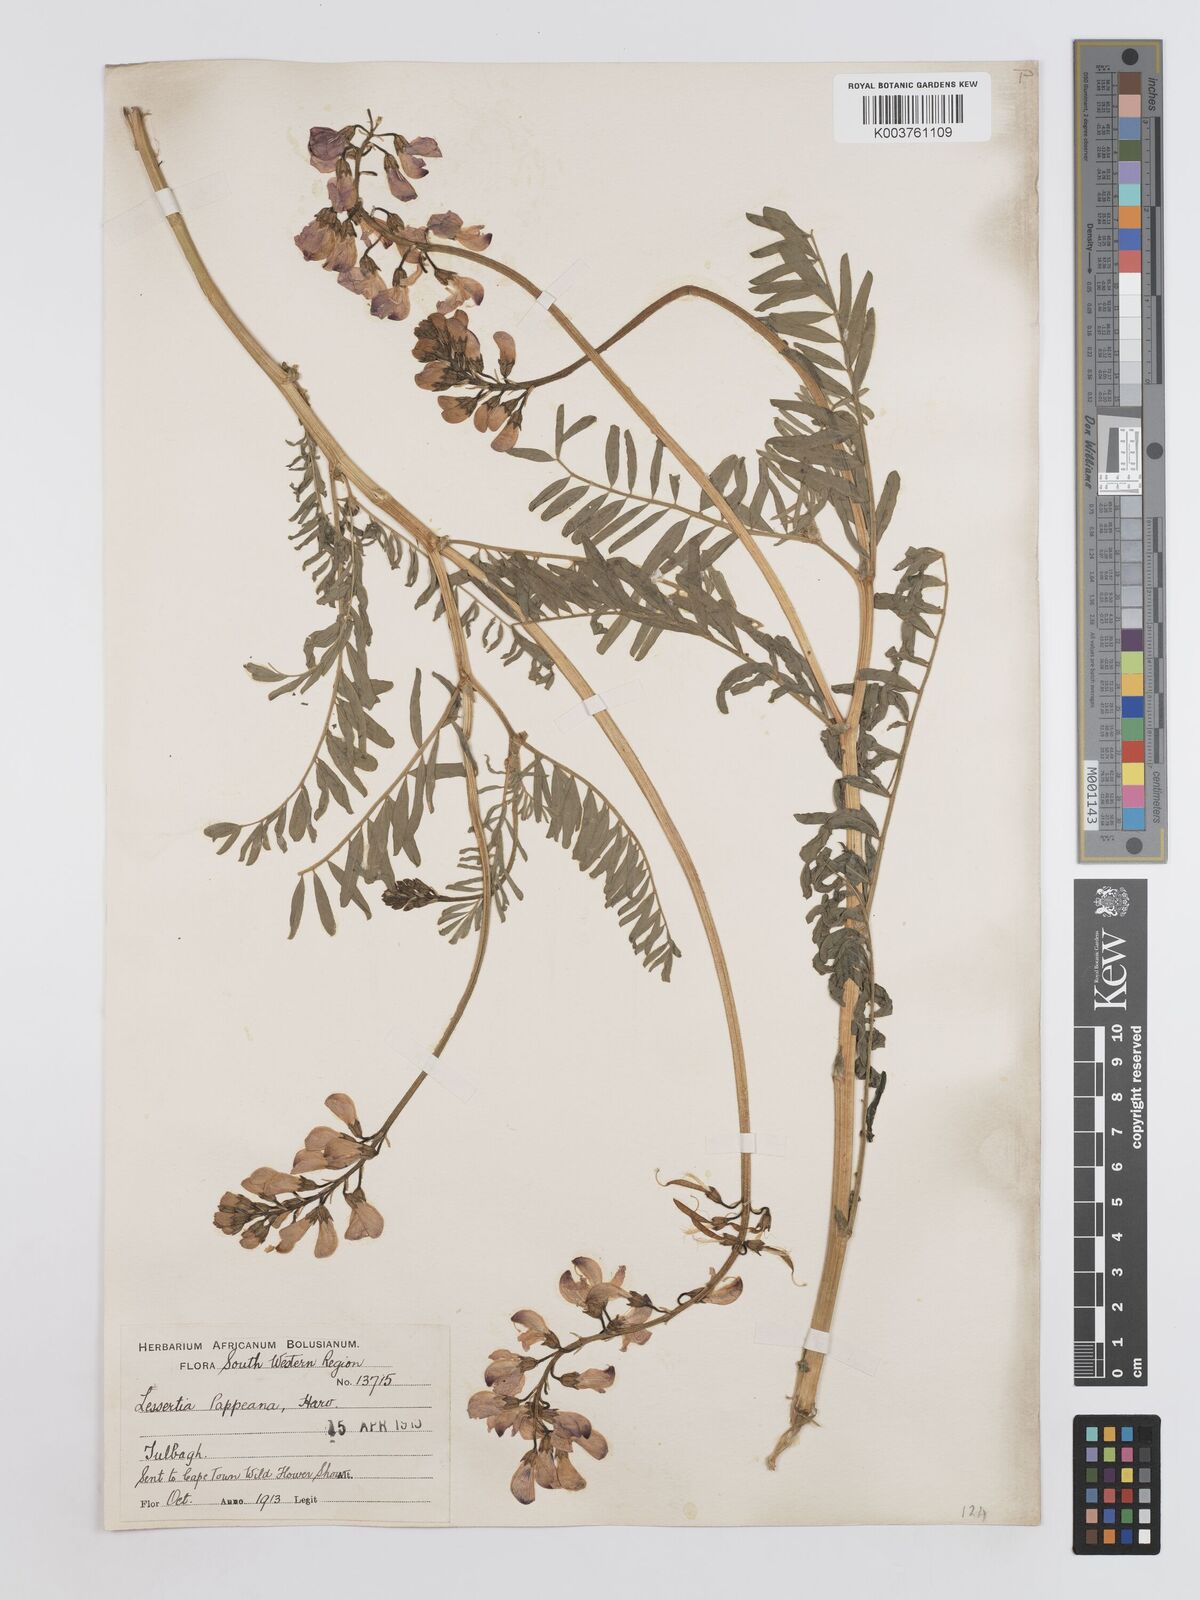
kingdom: Plantae
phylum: Tracheophyta
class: Magnoliopsida
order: Fabales
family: Fabaceae
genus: Lessertia
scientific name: Lessertia pappeana
